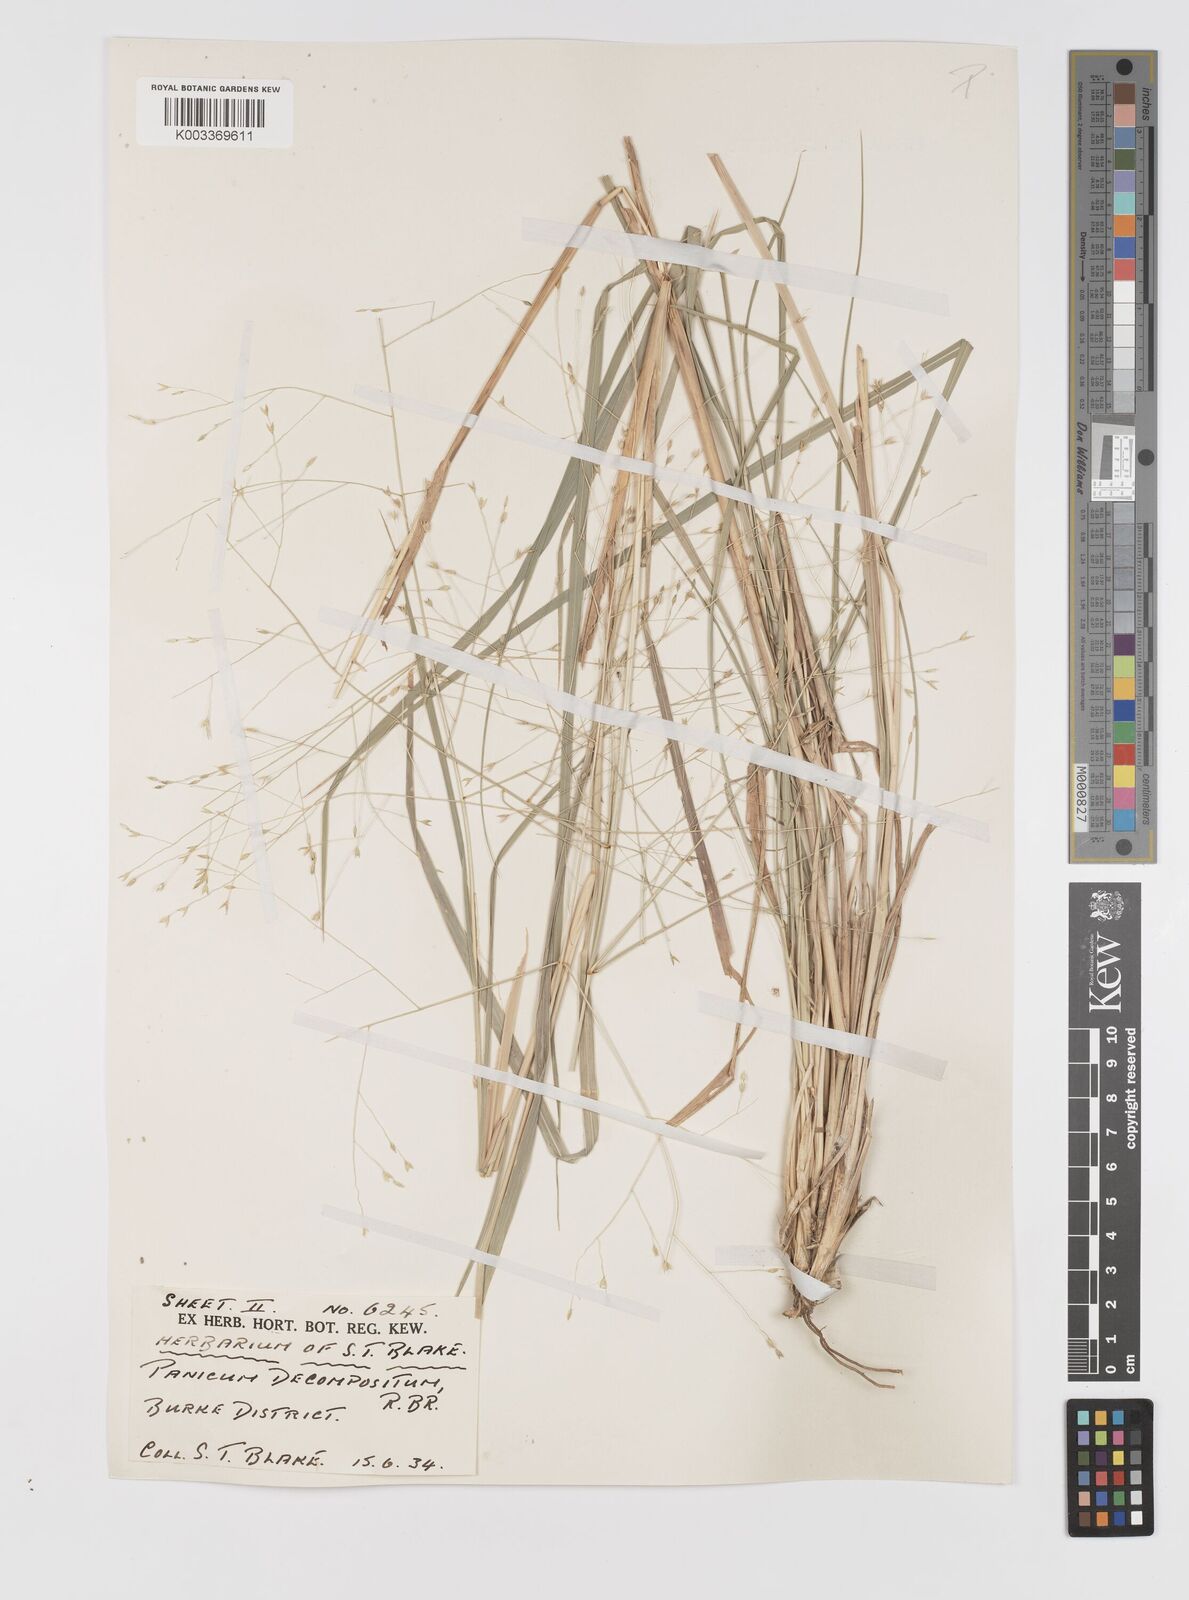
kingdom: Plantae
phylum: Tracheophyta
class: Liliopsida
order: Poales
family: Poaceae
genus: Panicum
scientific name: Panicum decompositum
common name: Australian millet
